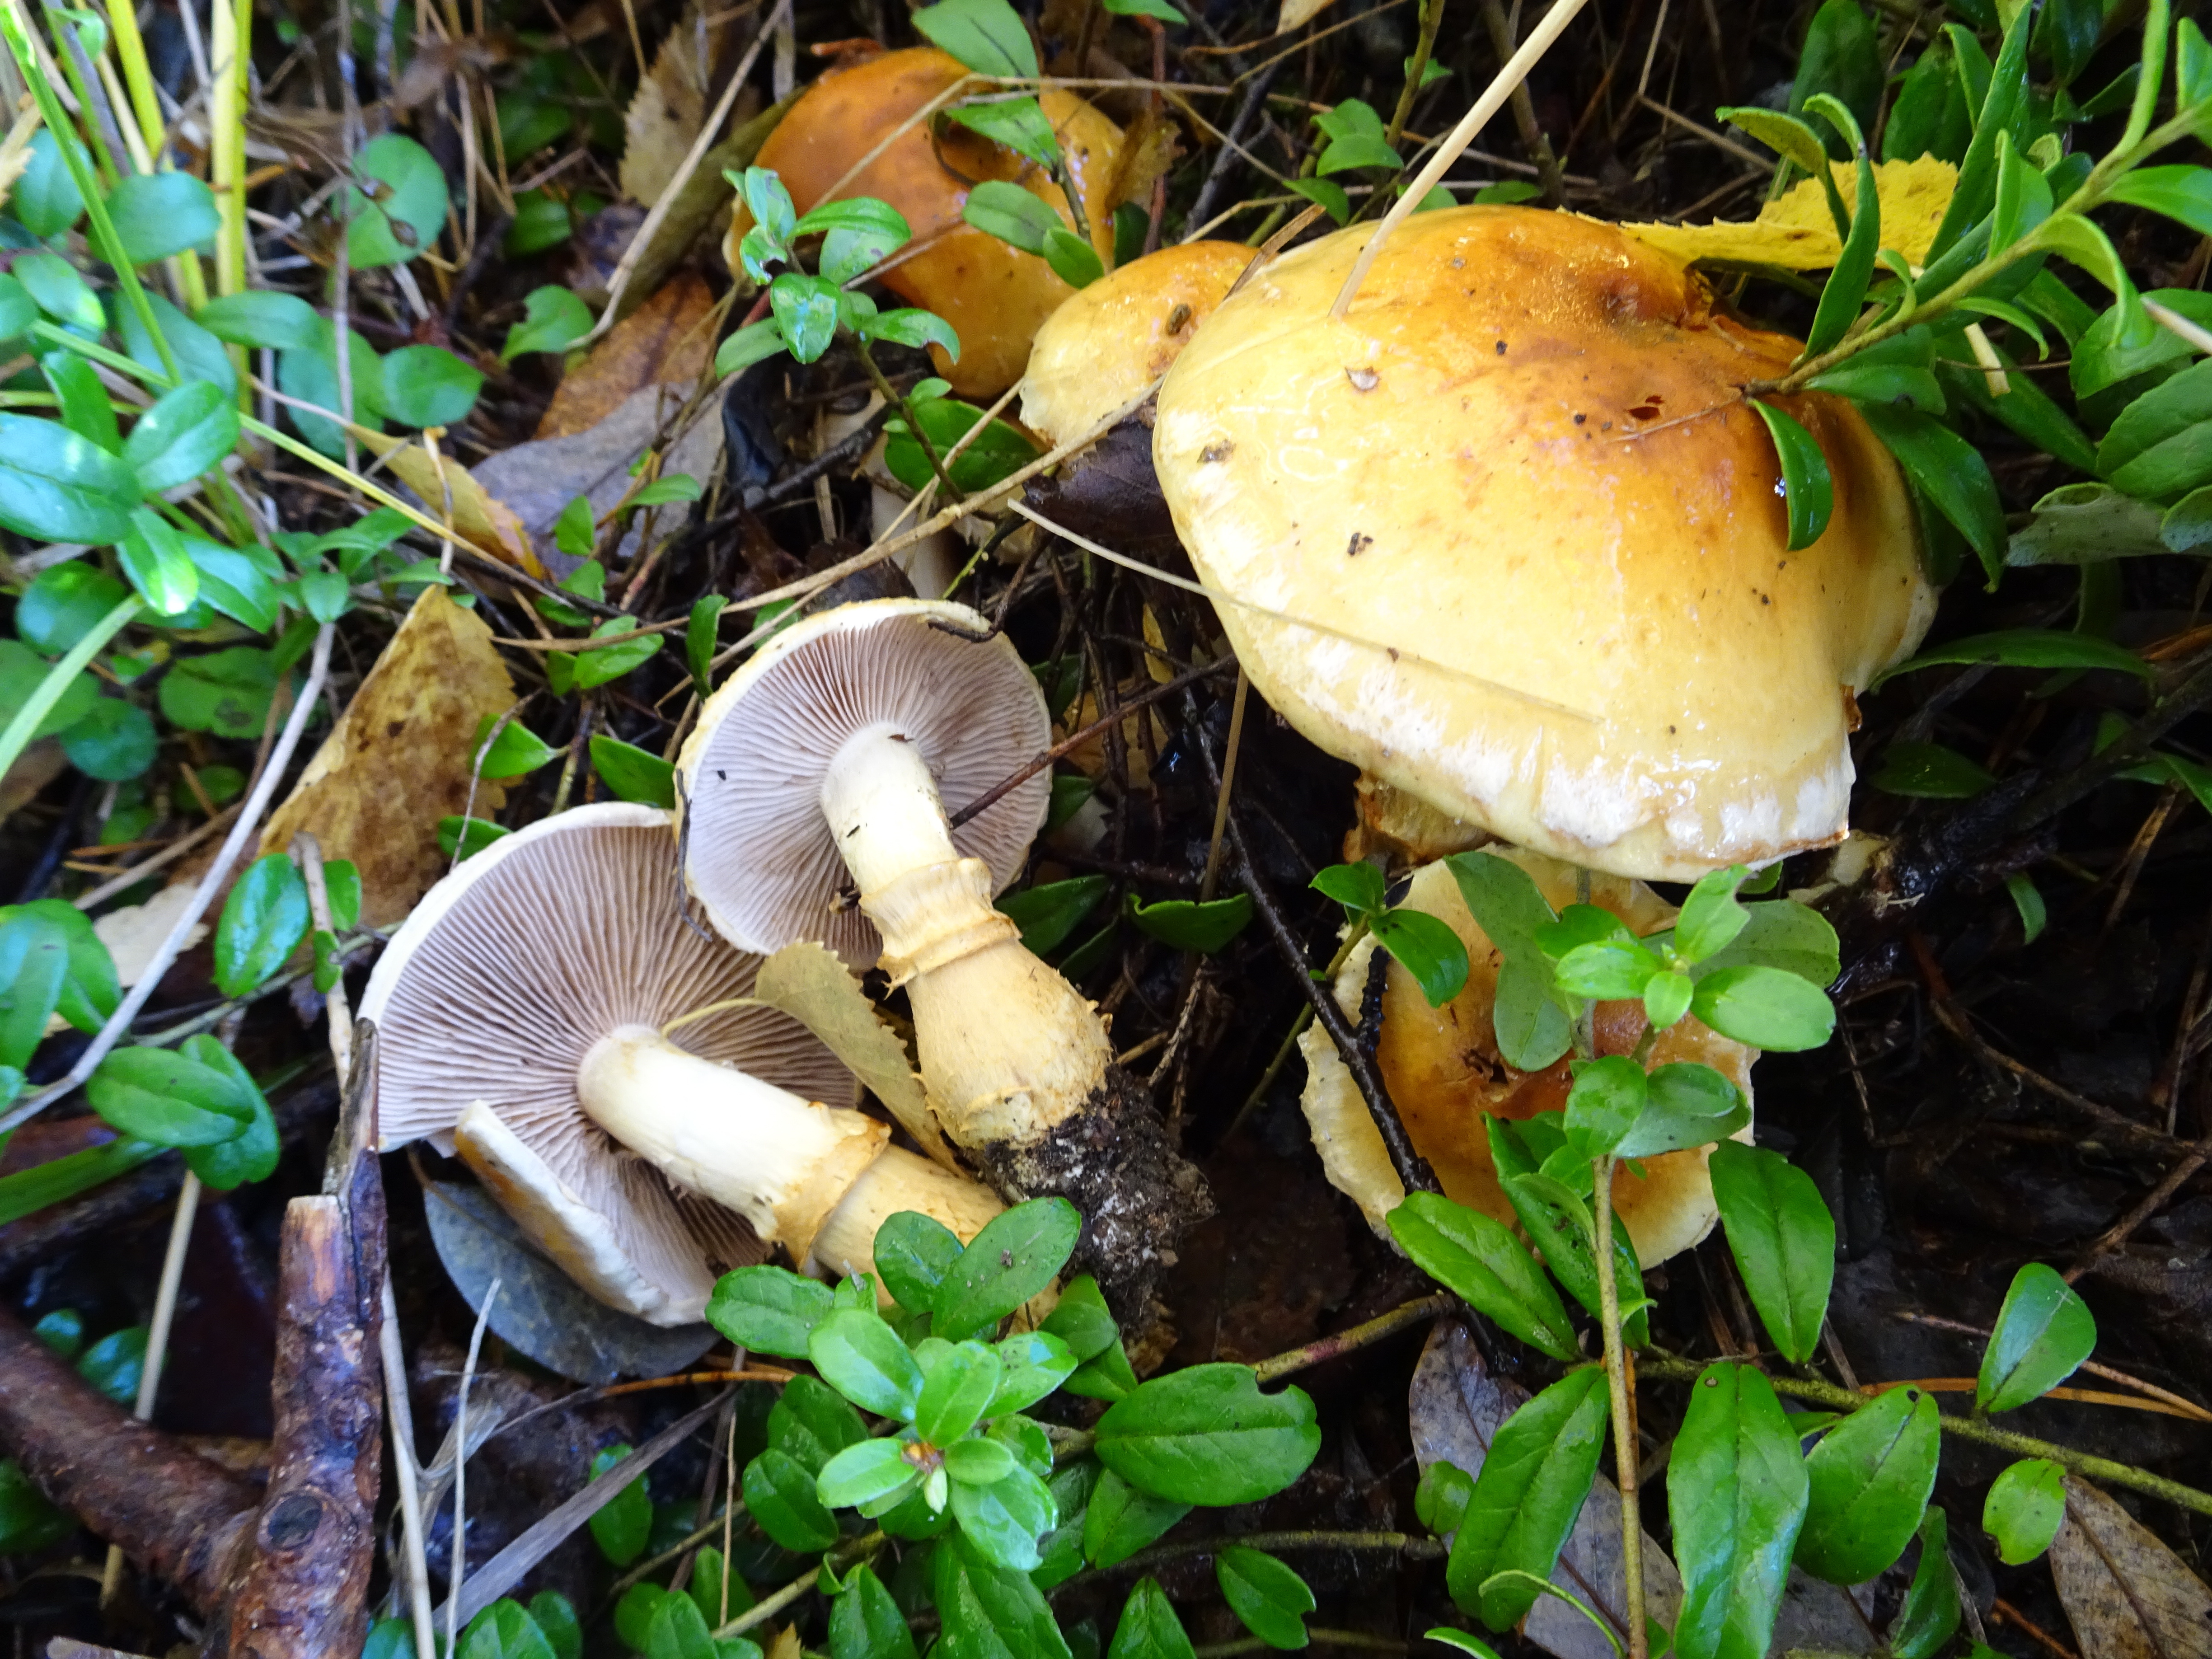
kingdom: Fungi
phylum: Basidiomycota
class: Agaricomycetes
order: Agaricales
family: Cortinariaceae
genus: Phlegmacium
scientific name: Phlegmacium triumphans
